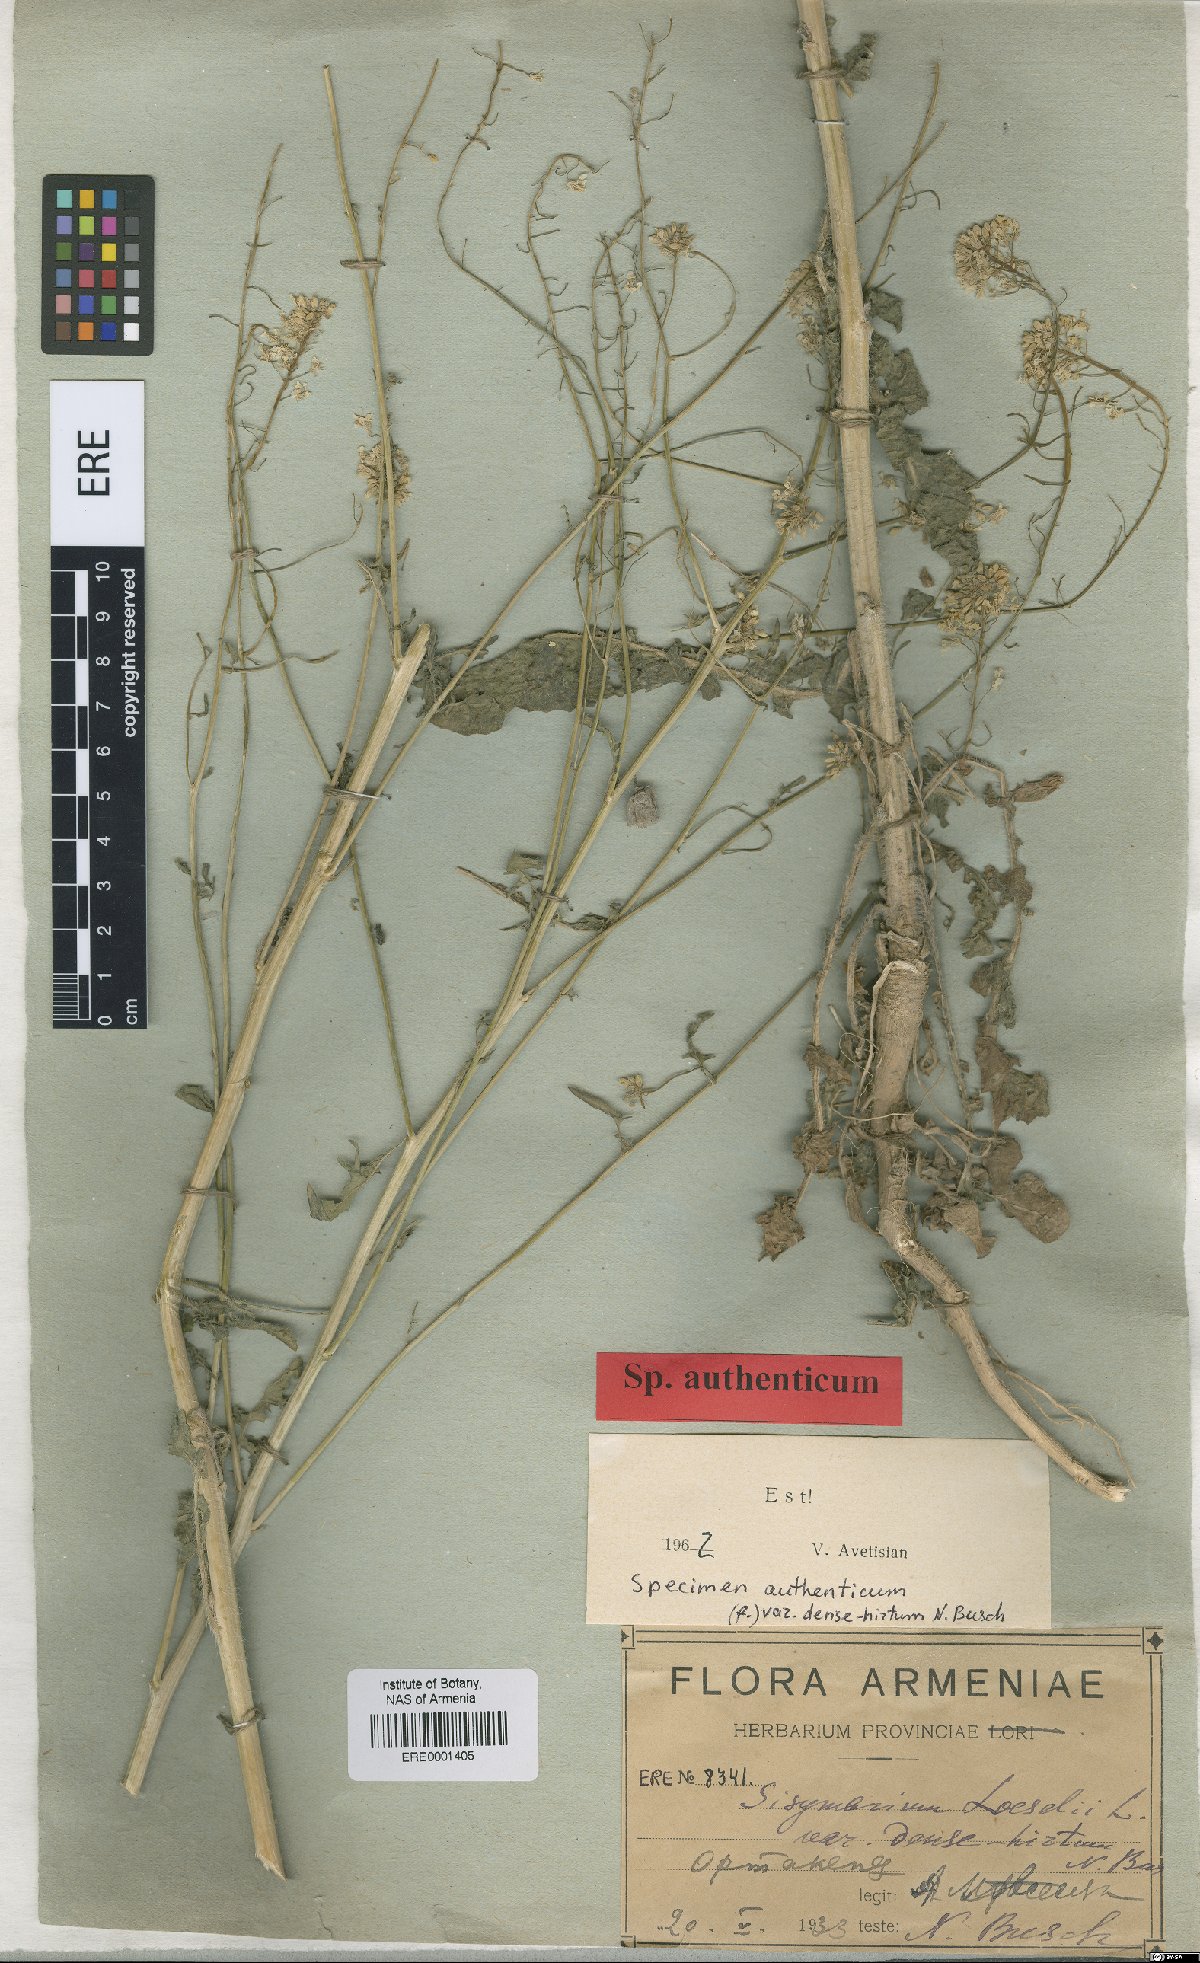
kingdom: Plantae
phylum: Tracheophyta
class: Magnoliopsida
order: Brassicales
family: Brassicaceae
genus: Sisymbrium
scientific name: Sisymbrium loeselii
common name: False london-rocket
